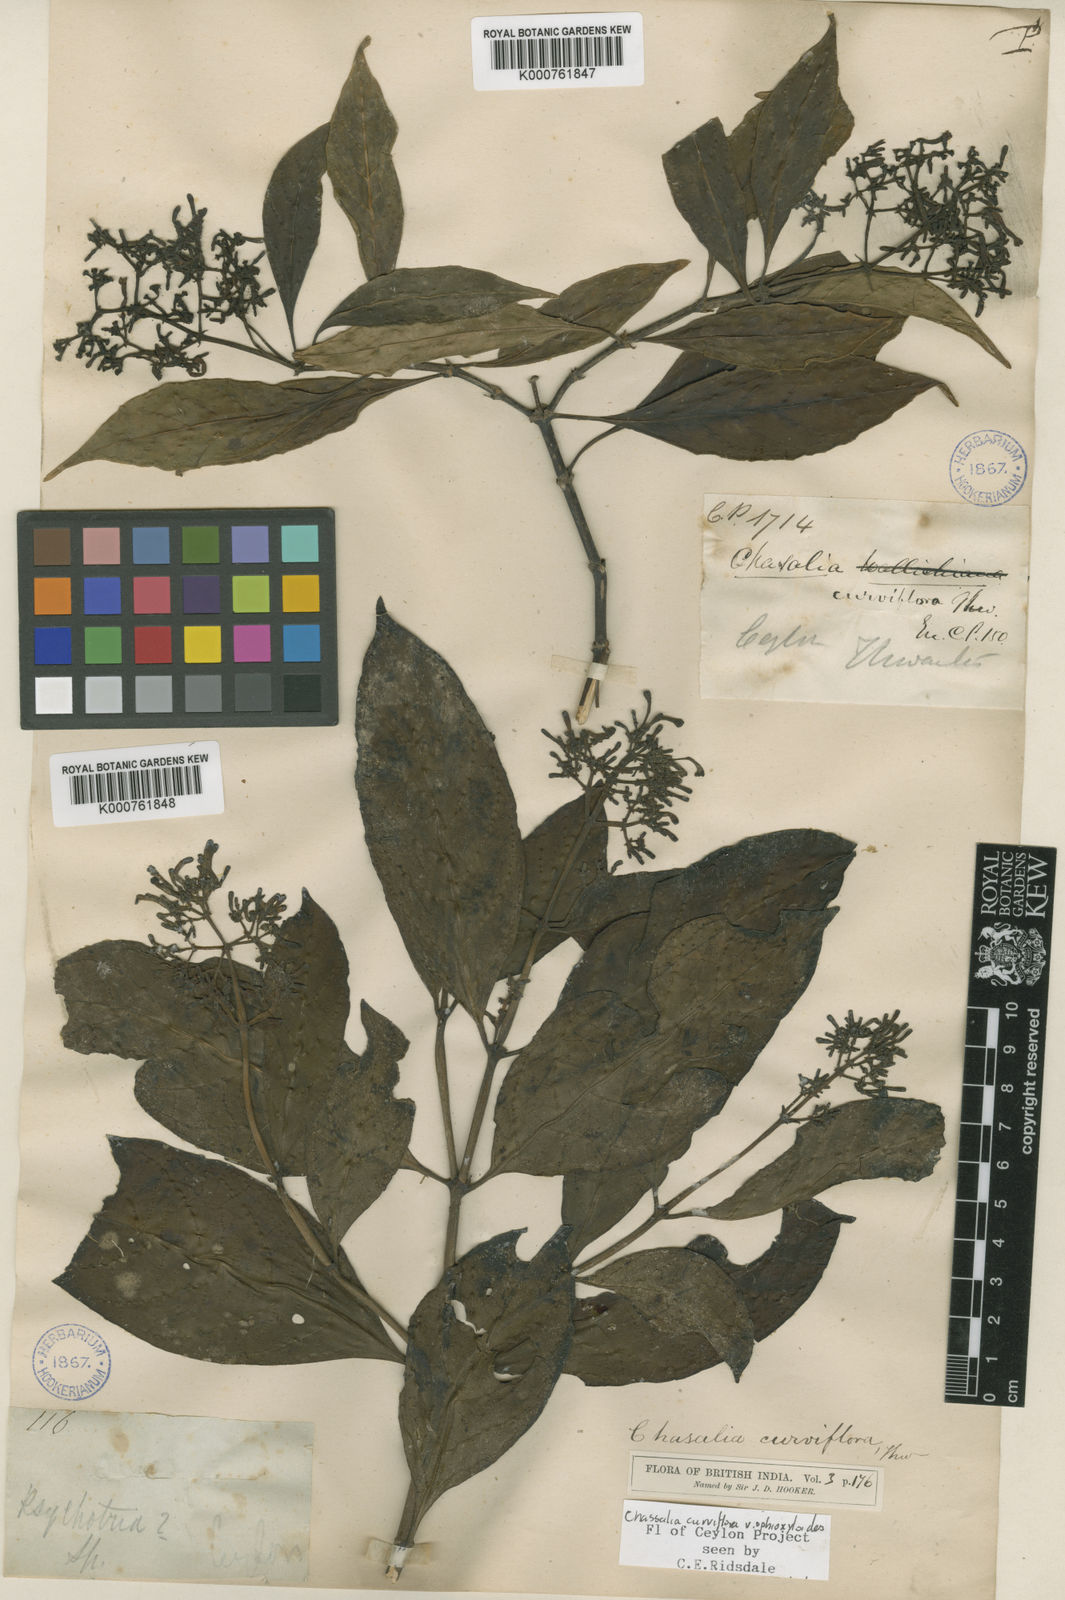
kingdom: Plantae
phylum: Tracheophyta
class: Magnoliopsida
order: Gentianales
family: Rubiaceae
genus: Chassalia
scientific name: Chassalia curviflora
